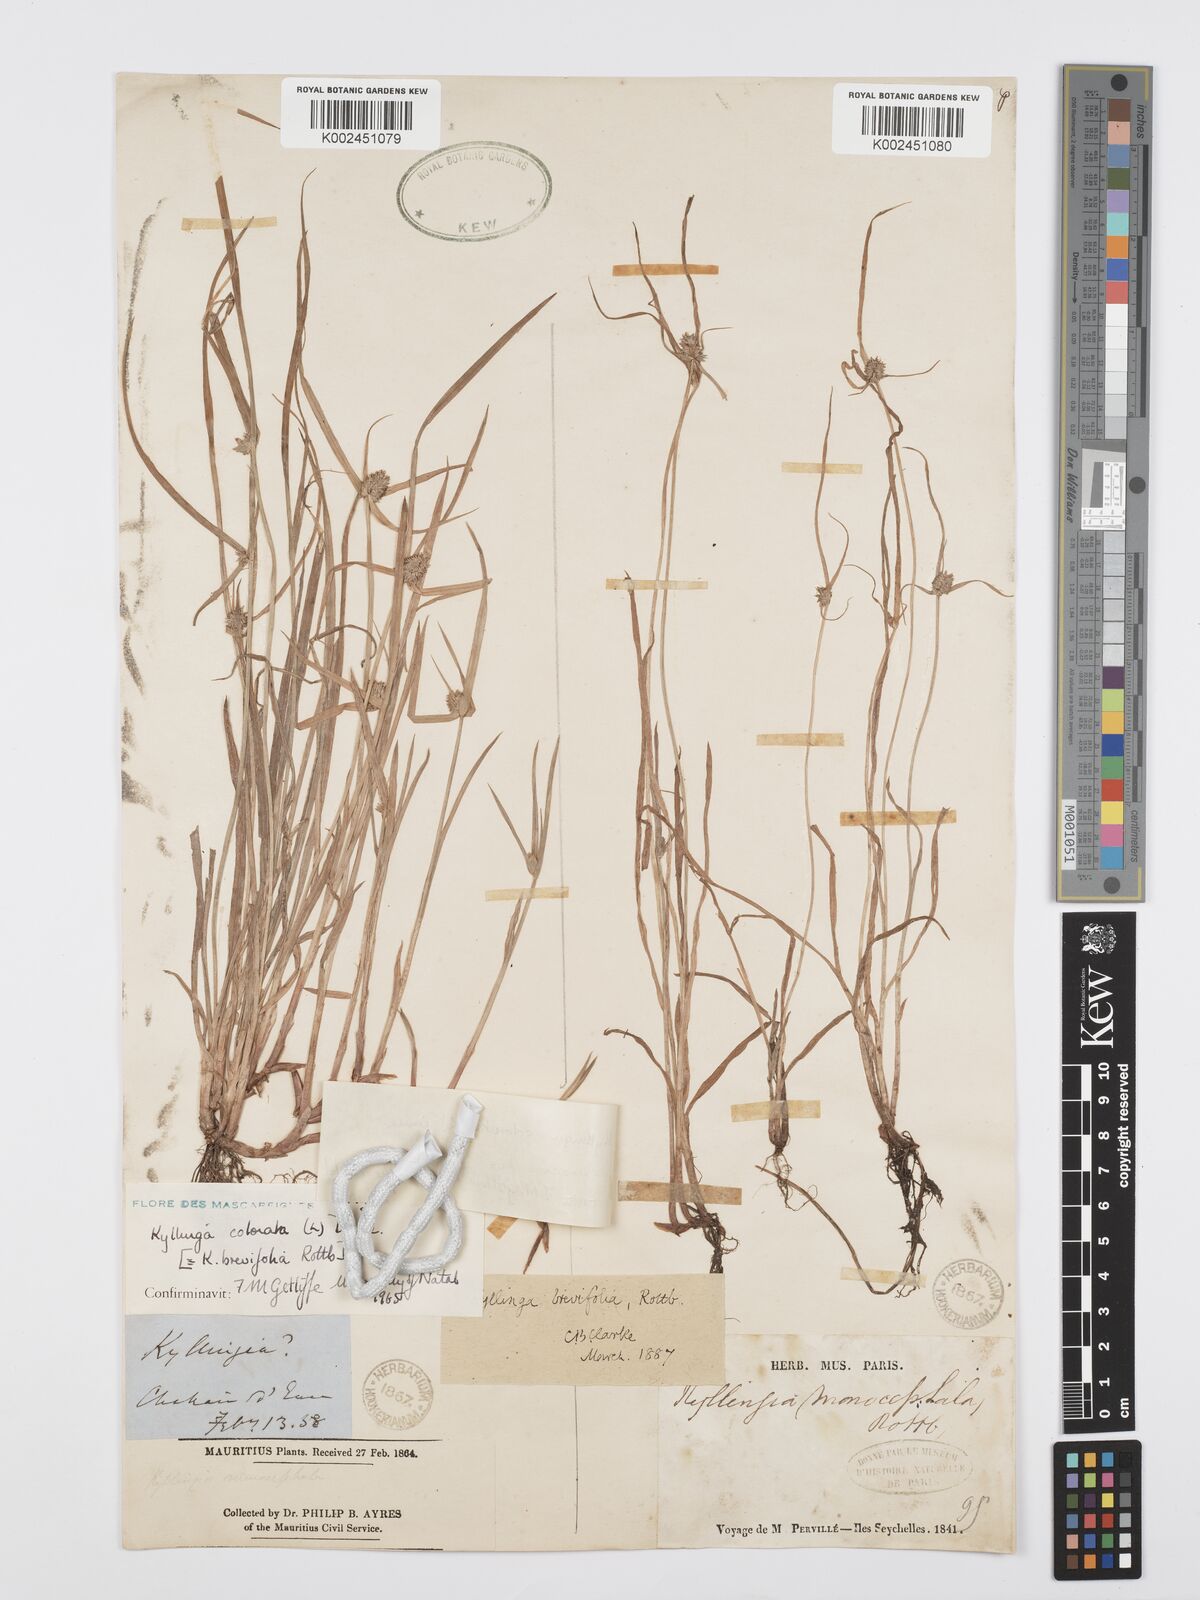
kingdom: Plantae
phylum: Tracheophyta
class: Liliopsida
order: Poales
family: Cyperaceae
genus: Cyperus
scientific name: Cyperus brevifolius
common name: Globe kyllinga
